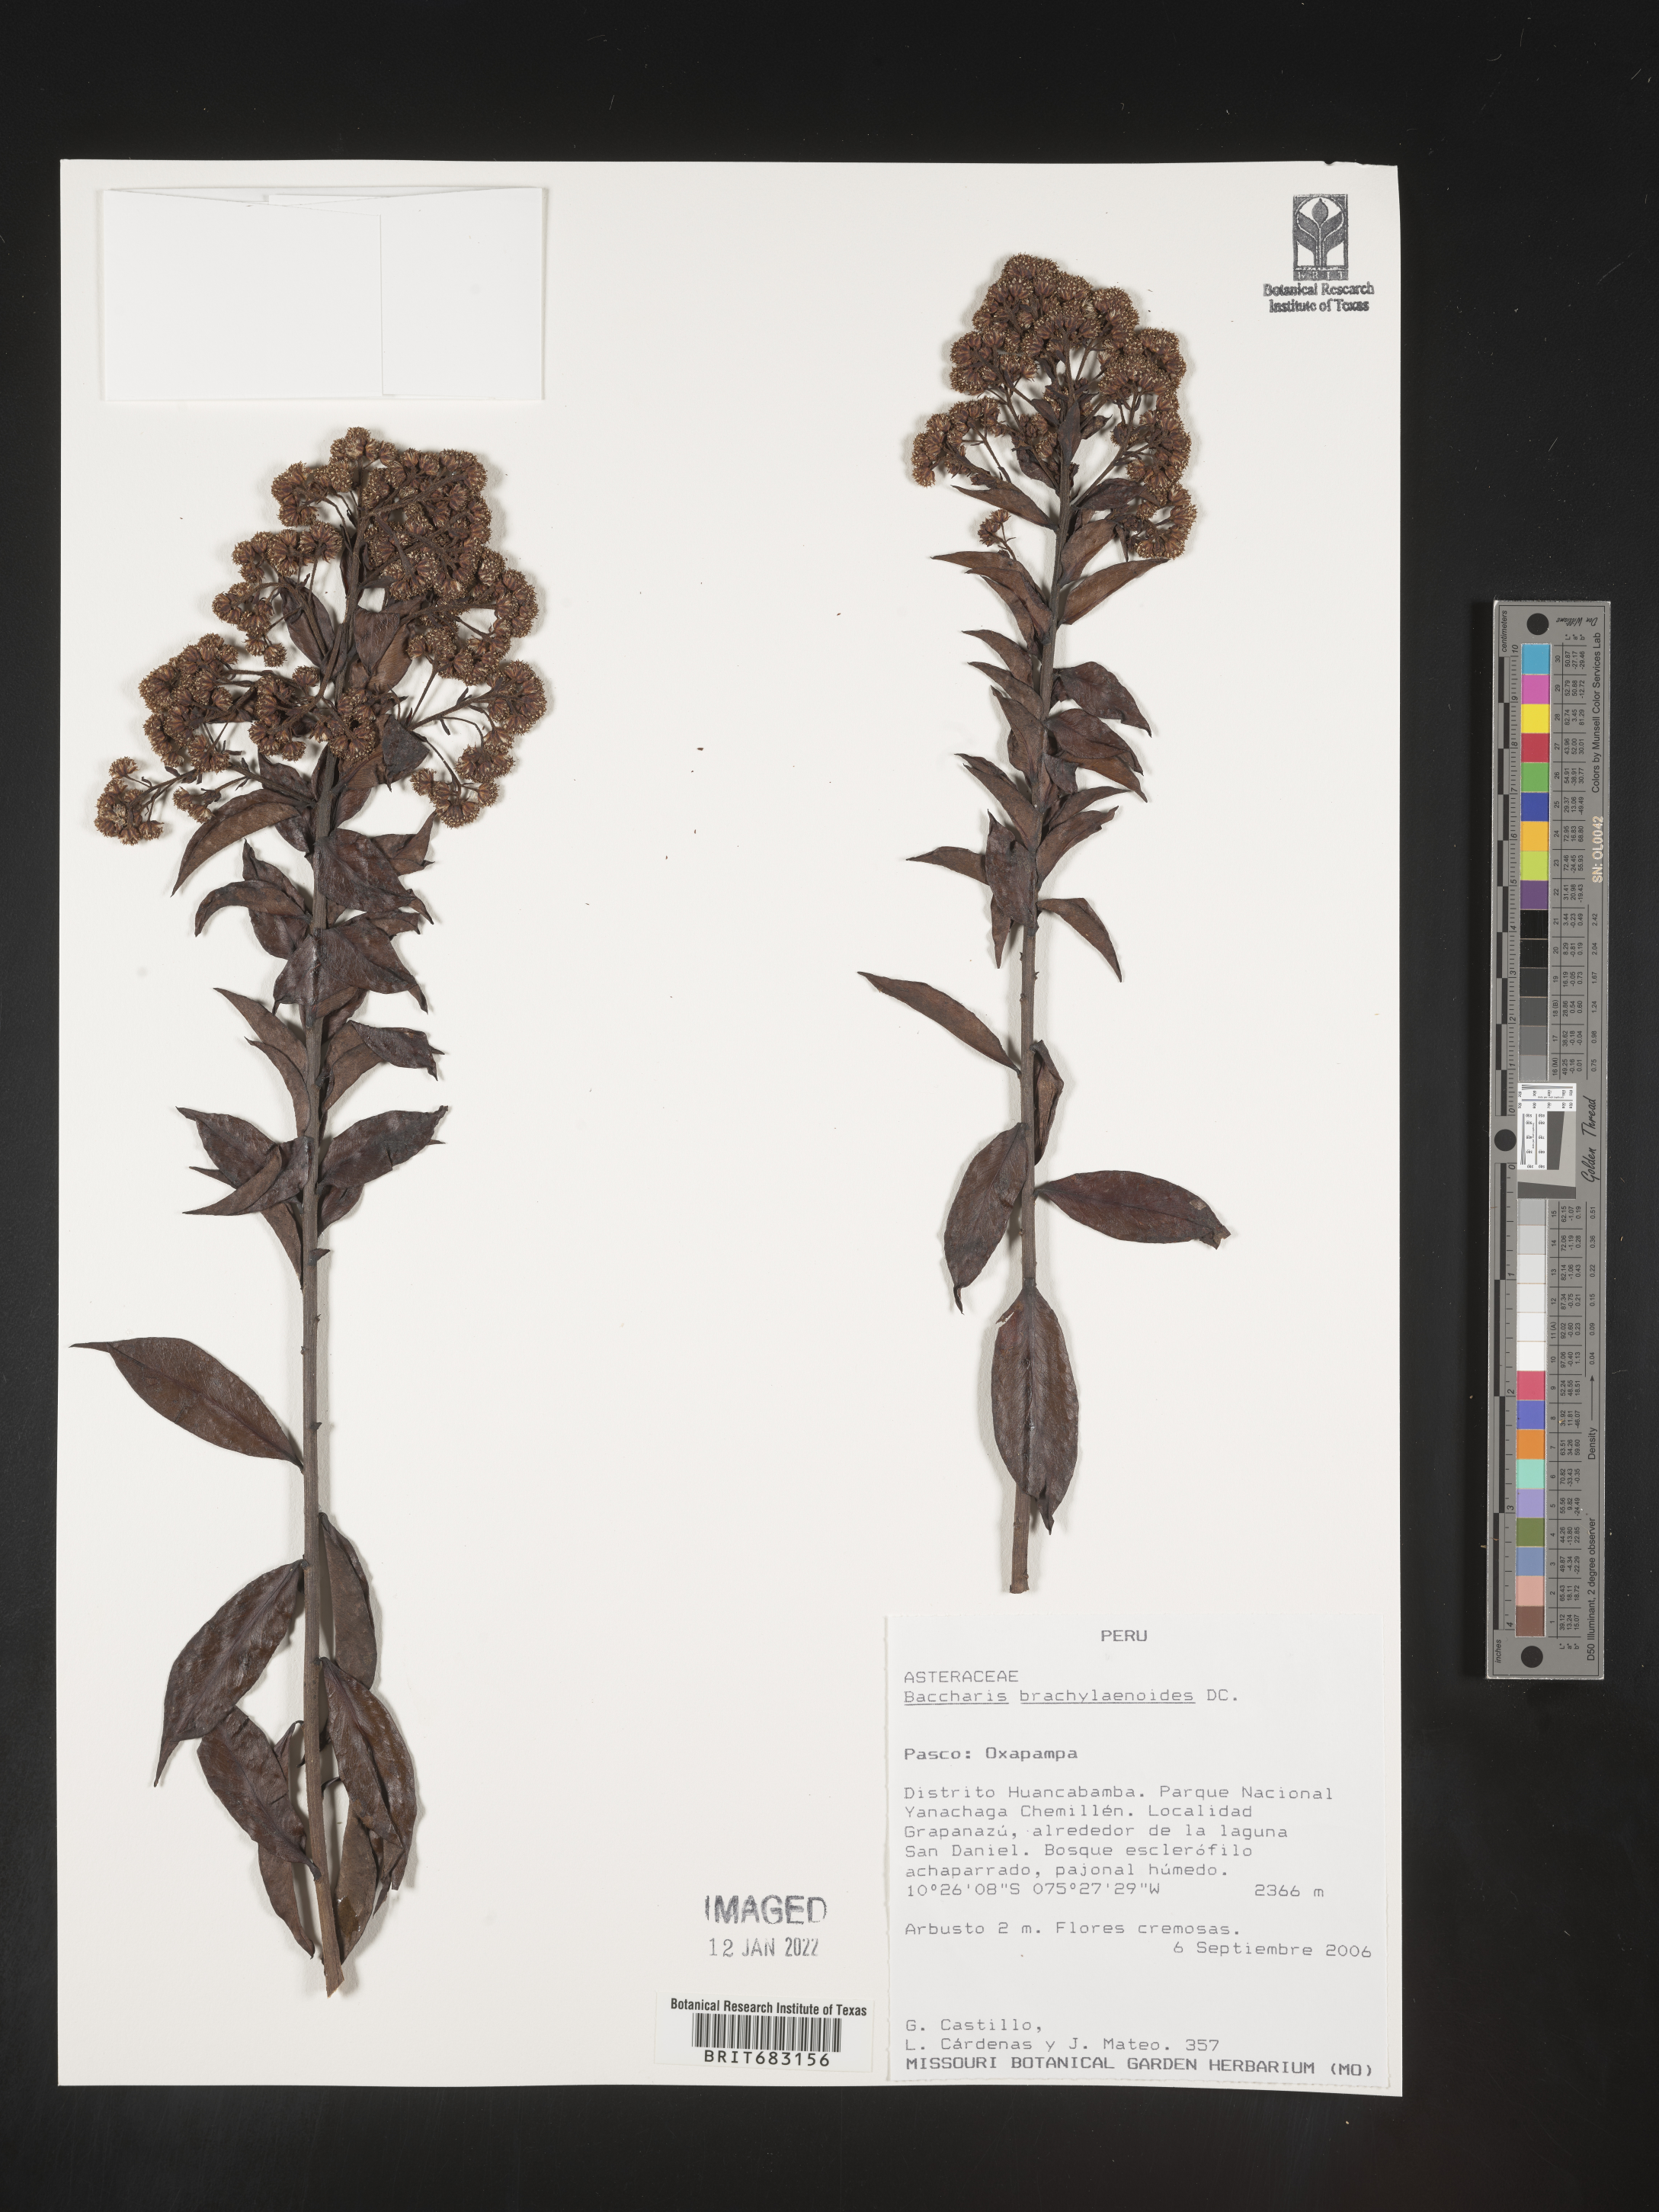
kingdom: Plantae
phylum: Tracheophyta
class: Magnoliopsida
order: Asterales
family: Asteraceae
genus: Baccharis
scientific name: Baccharis
